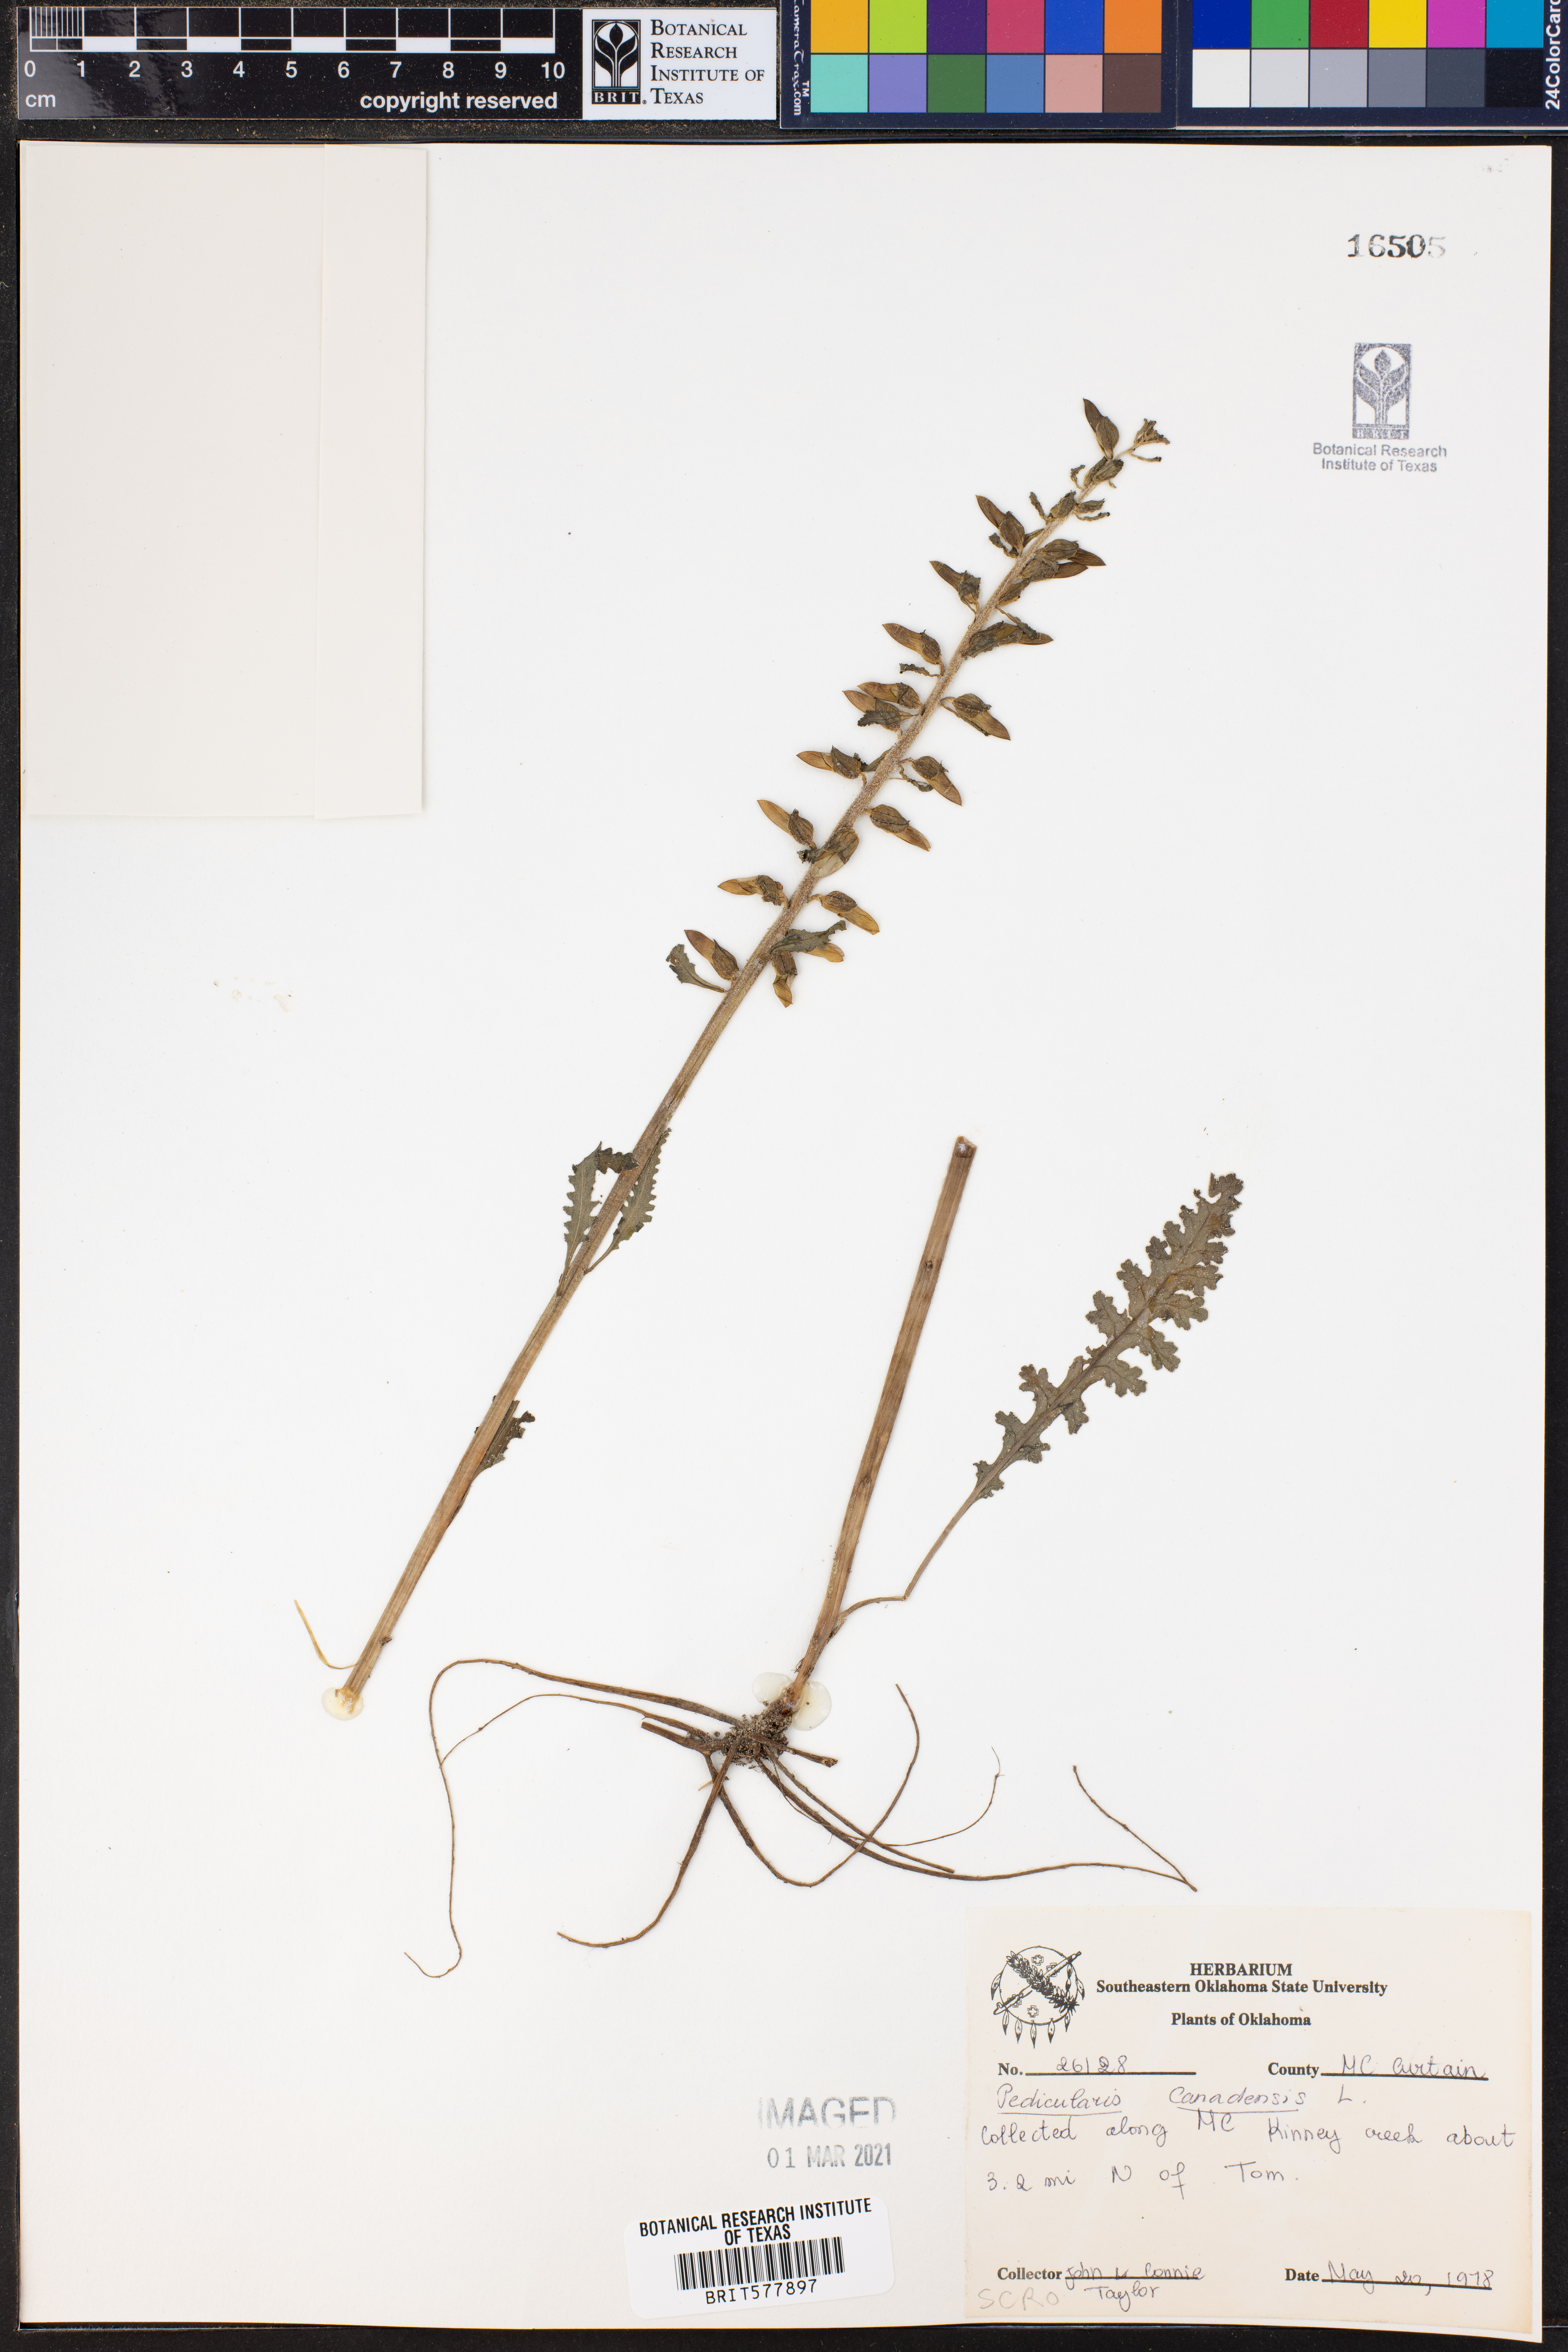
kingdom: Plantae
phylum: Tracheophyta
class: Magnoliopsida
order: Lamiales
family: Orobanchaceae
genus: Pedicularis
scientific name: Pedicularis canadensis
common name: Early lousewort
